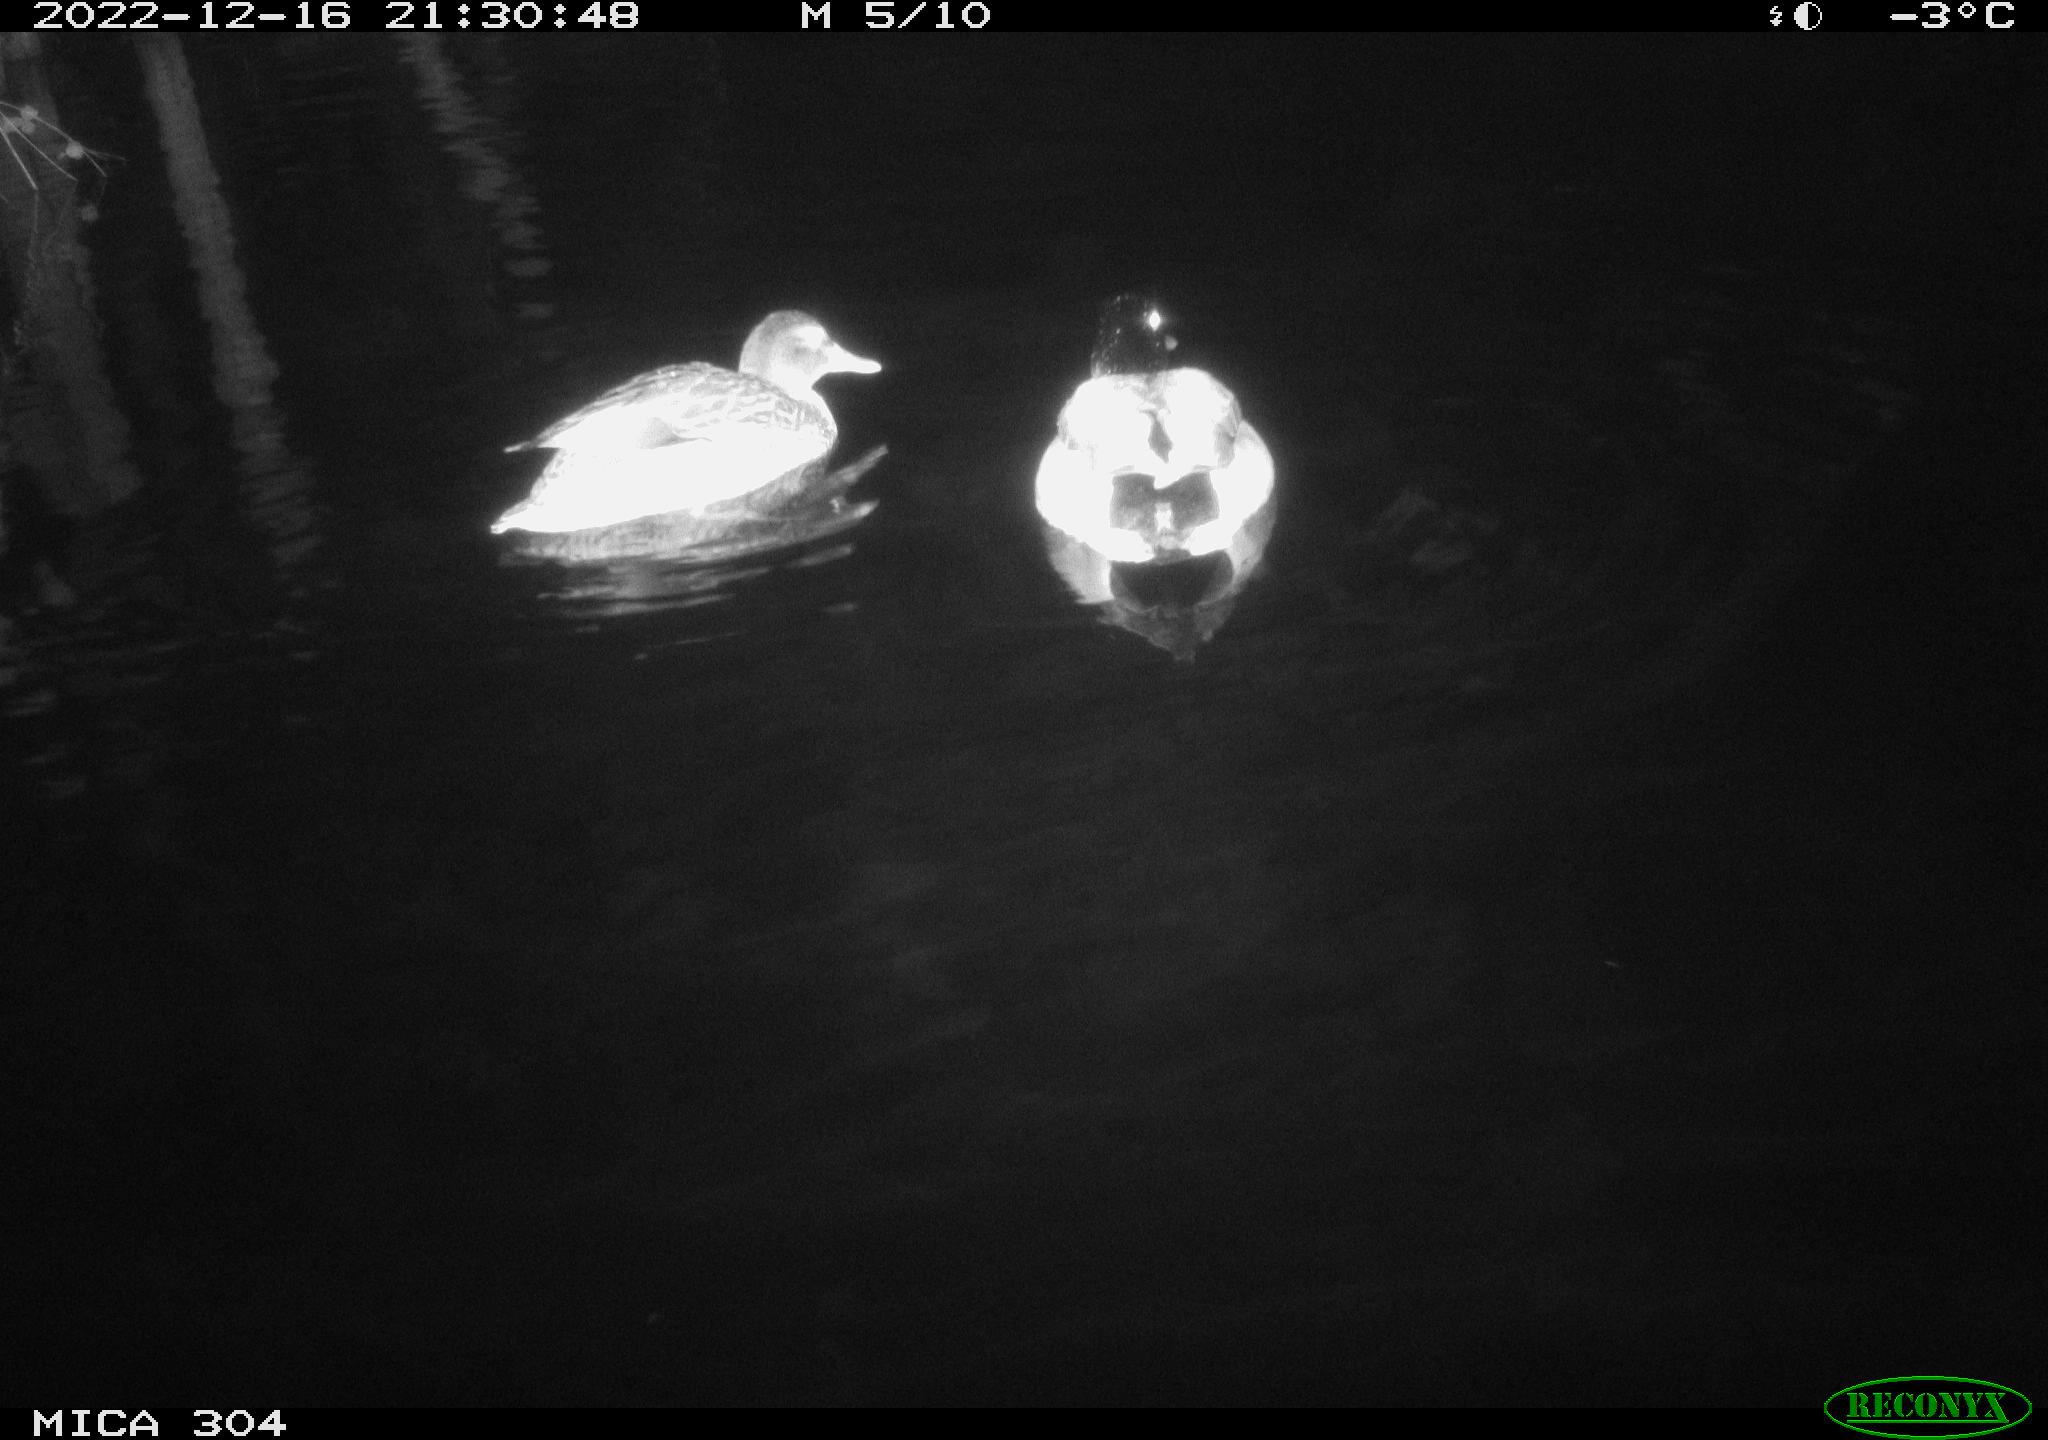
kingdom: Animalia
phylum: Chordata
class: Aves
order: Anseriformes
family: Anatidae
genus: Anas
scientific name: Anas
